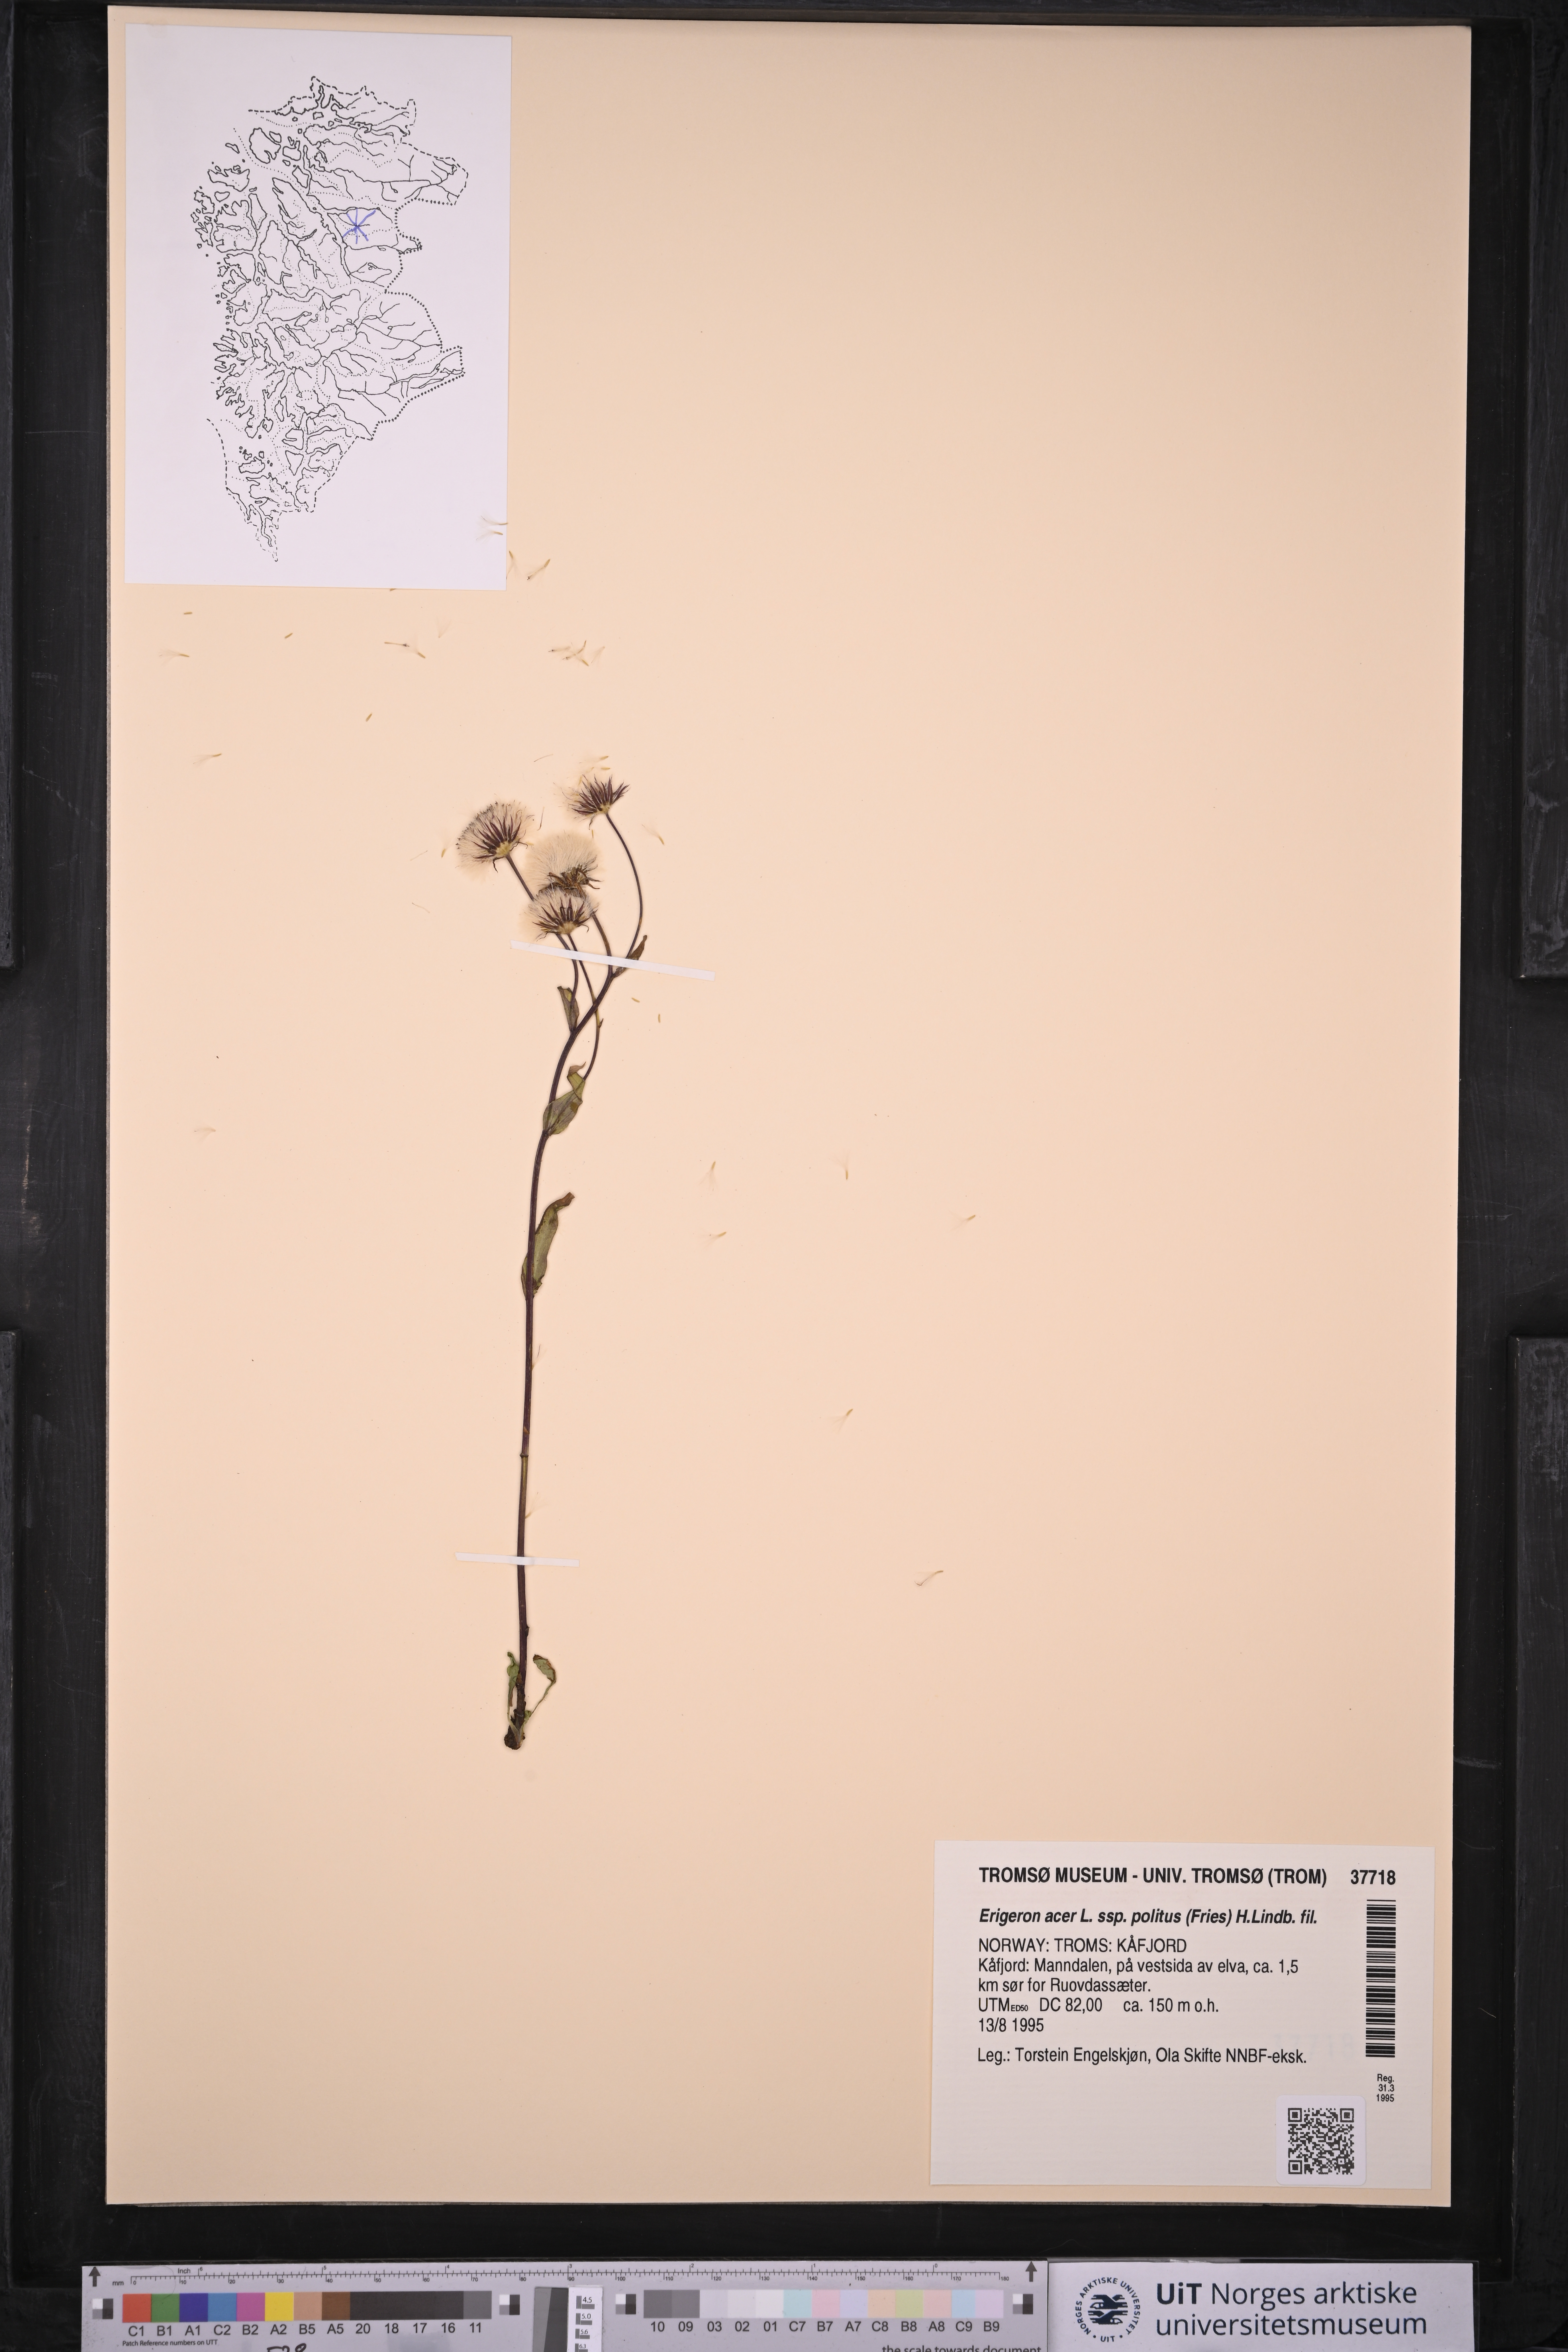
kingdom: Plantae
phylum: Tracheophyta
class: Magnoliopsida
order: Asterales
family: Asteraceae
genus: Erigeron
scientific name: Erigeron politus
